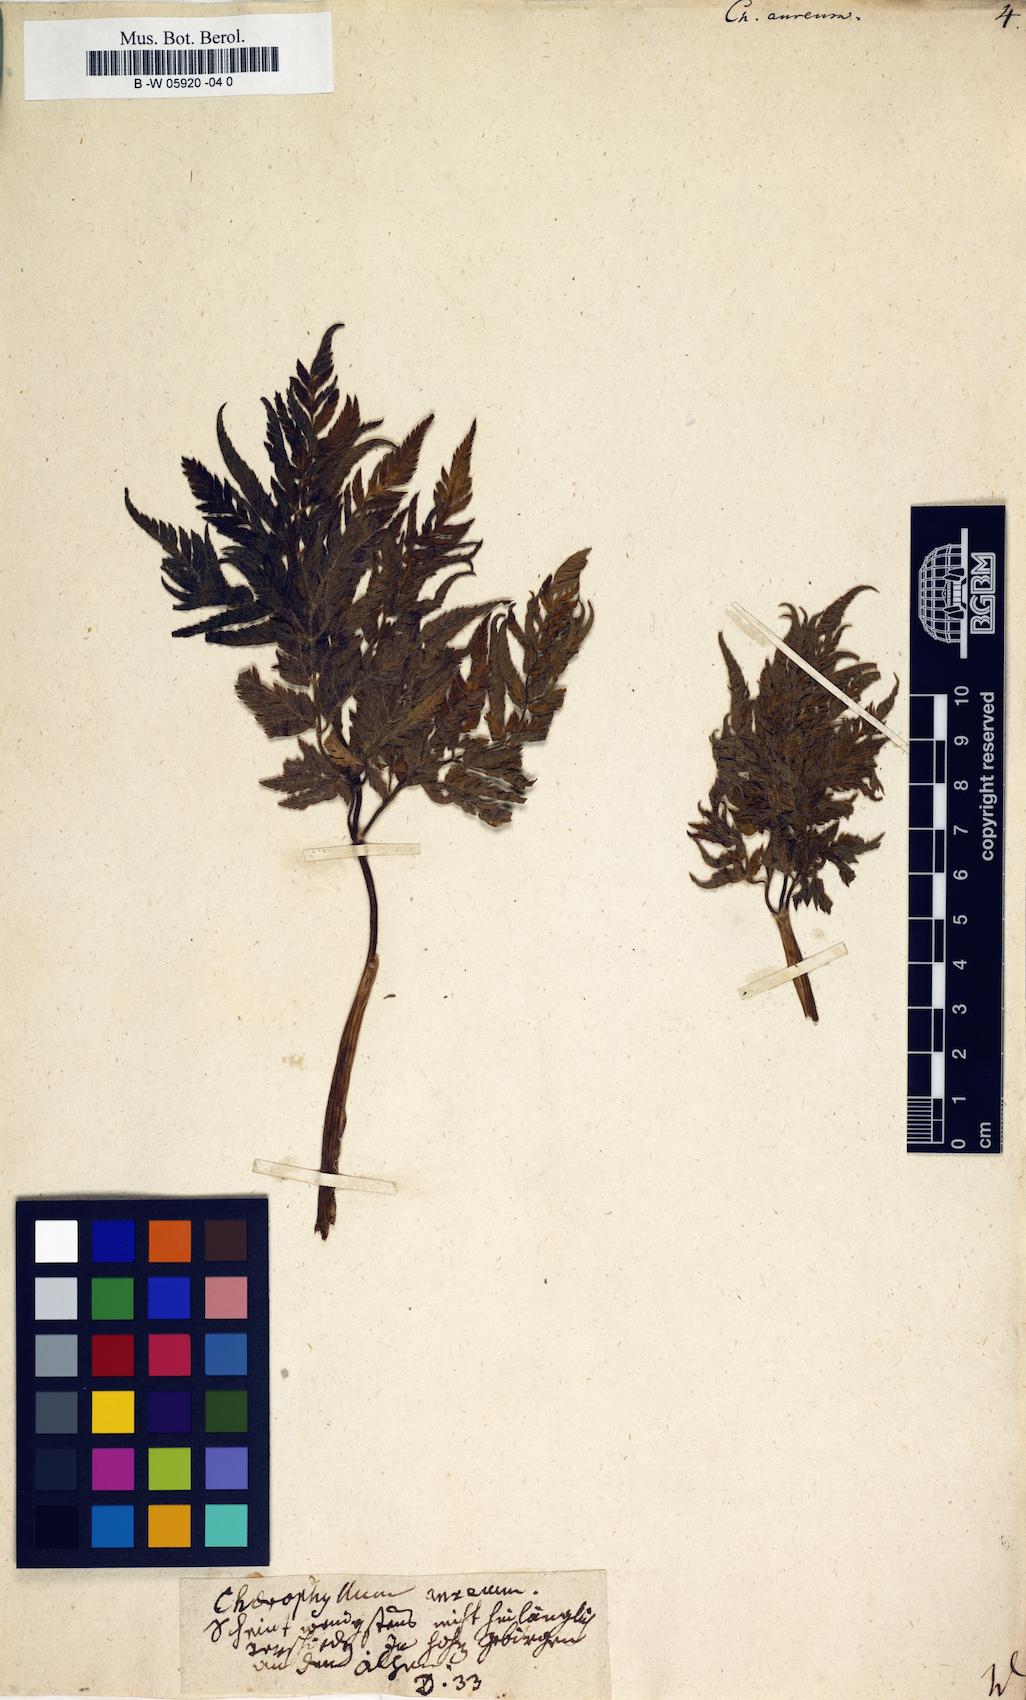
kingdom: Plantae
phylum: Tracheophyta
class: Magnoliopsida
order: Apiales
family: Apiaceae
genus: Chaerophyllum
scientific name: Chaerophyllum aureum
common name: Golden chervil
